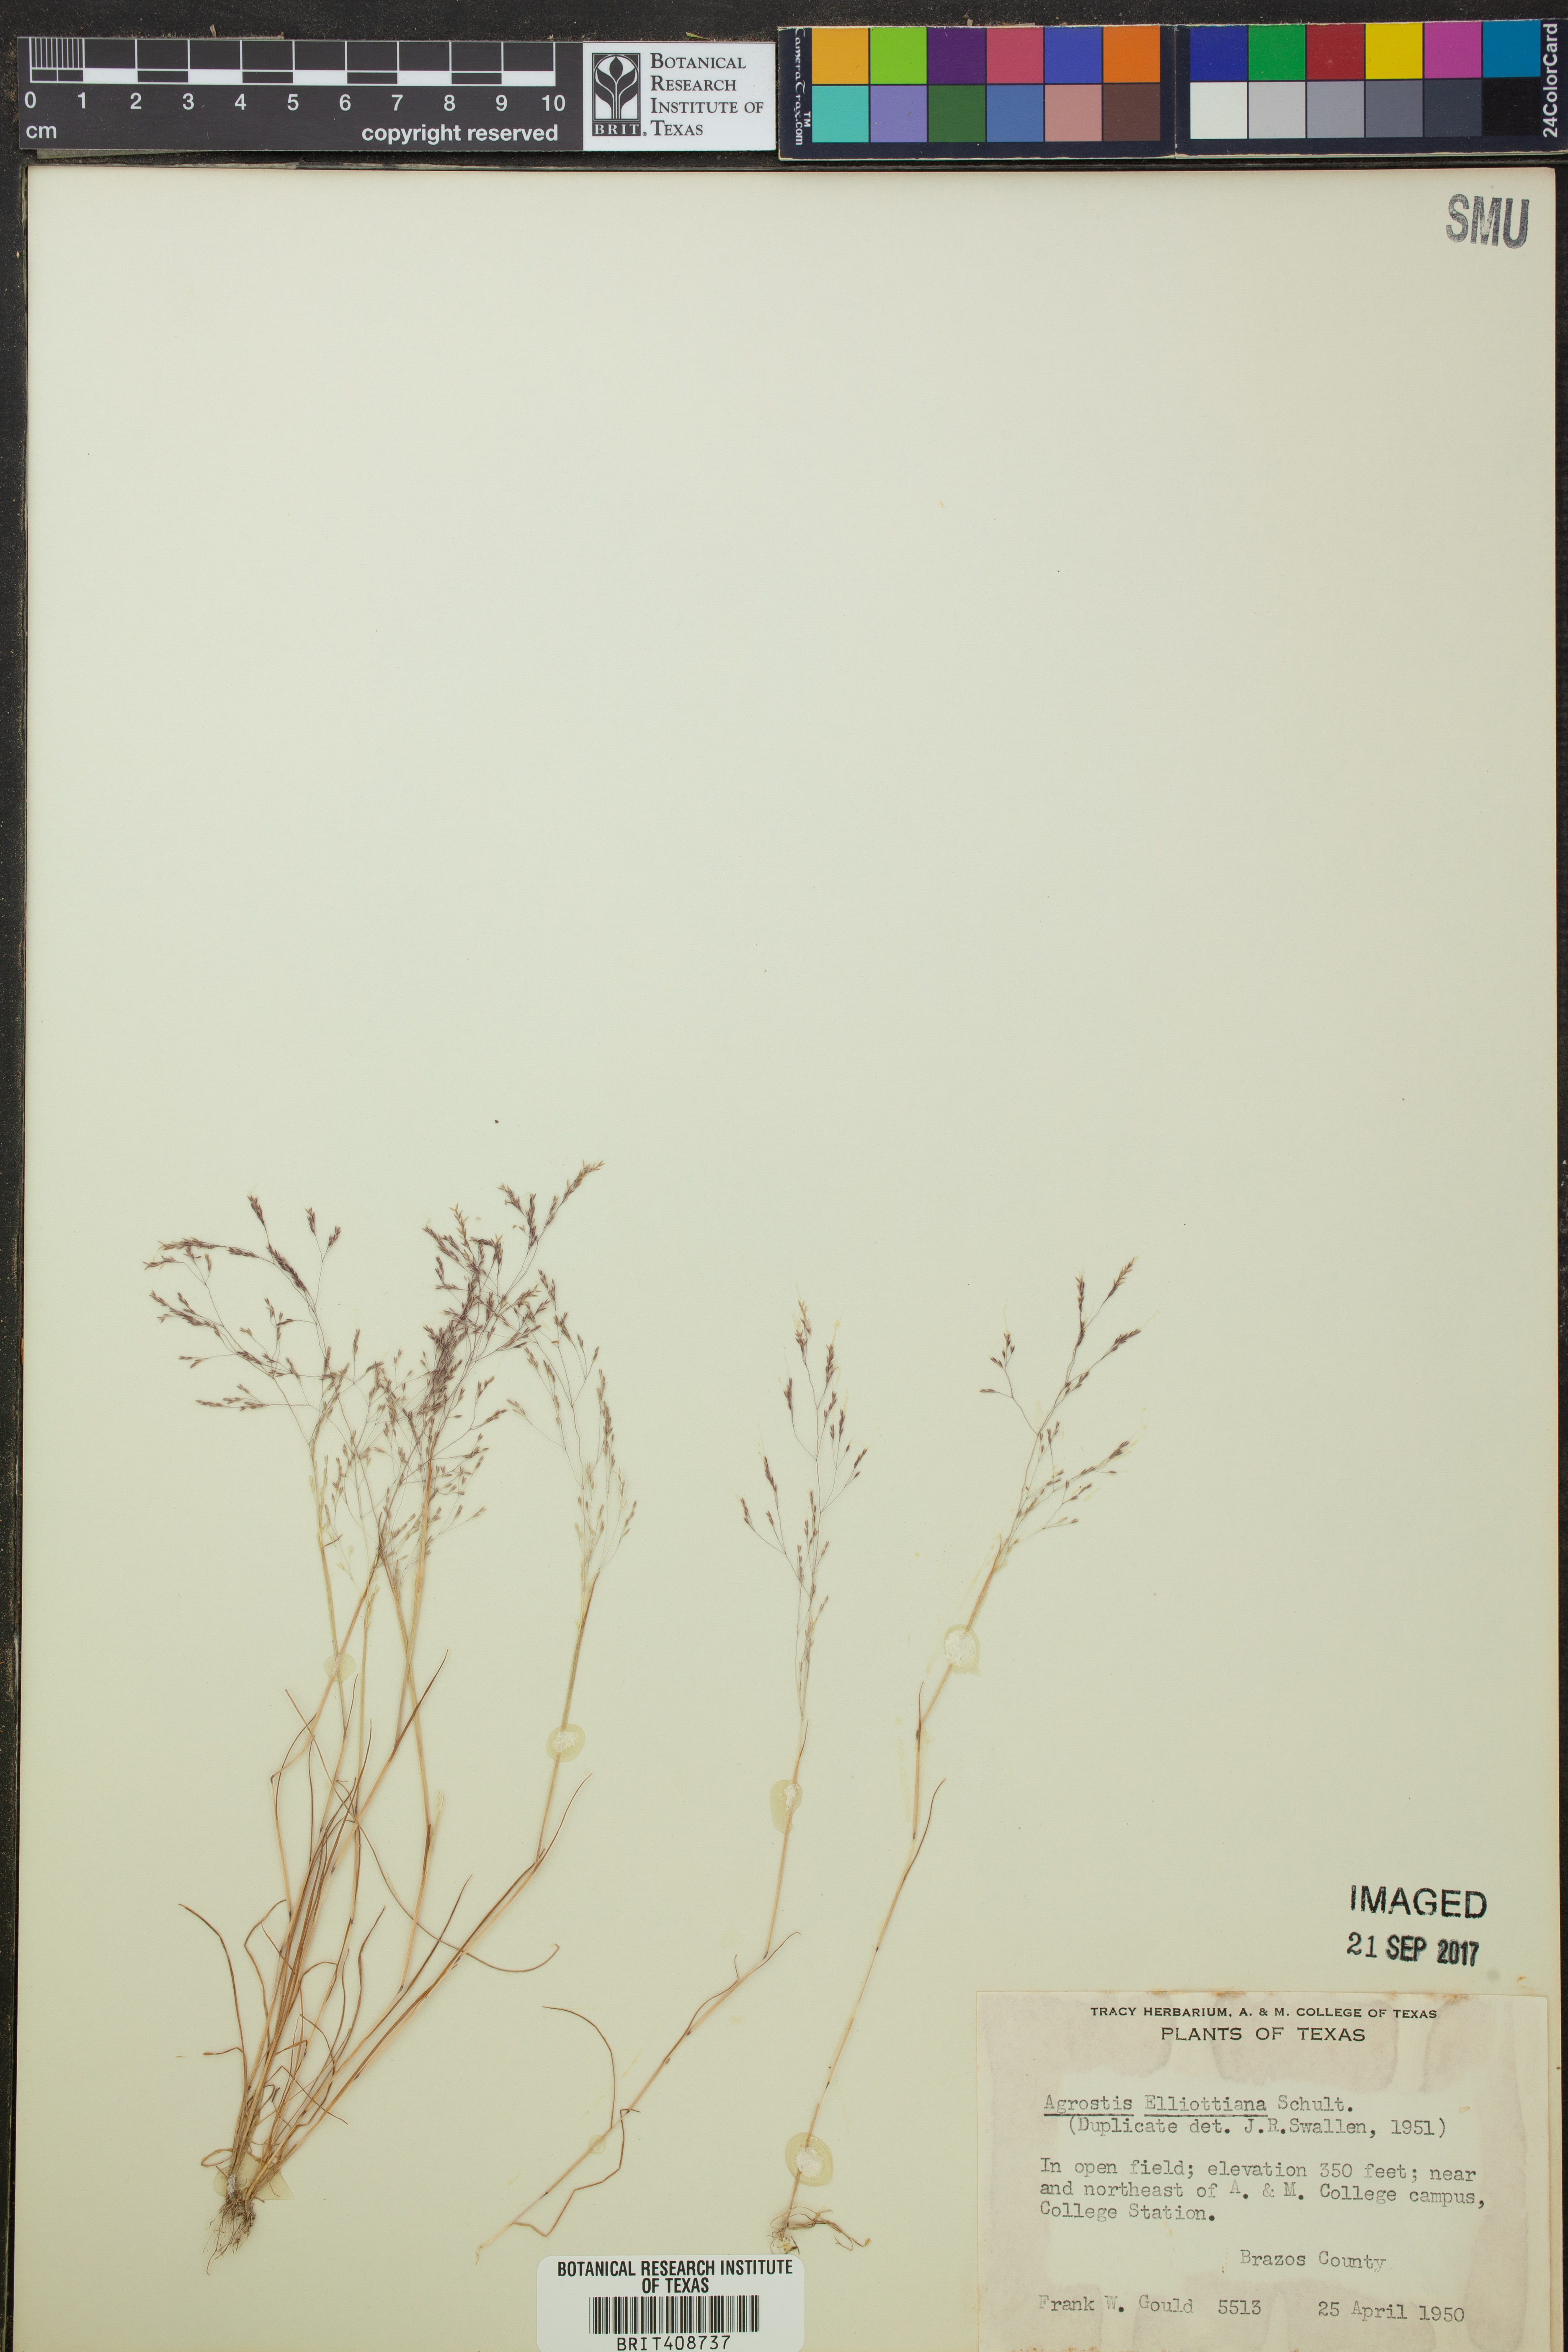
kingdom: Plantae
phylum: Tracheophyta
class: Liliopsida
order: Poales
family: Poaceae
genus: Agrostis
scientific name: Agrostis elliottiana
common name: Elliott's bent
